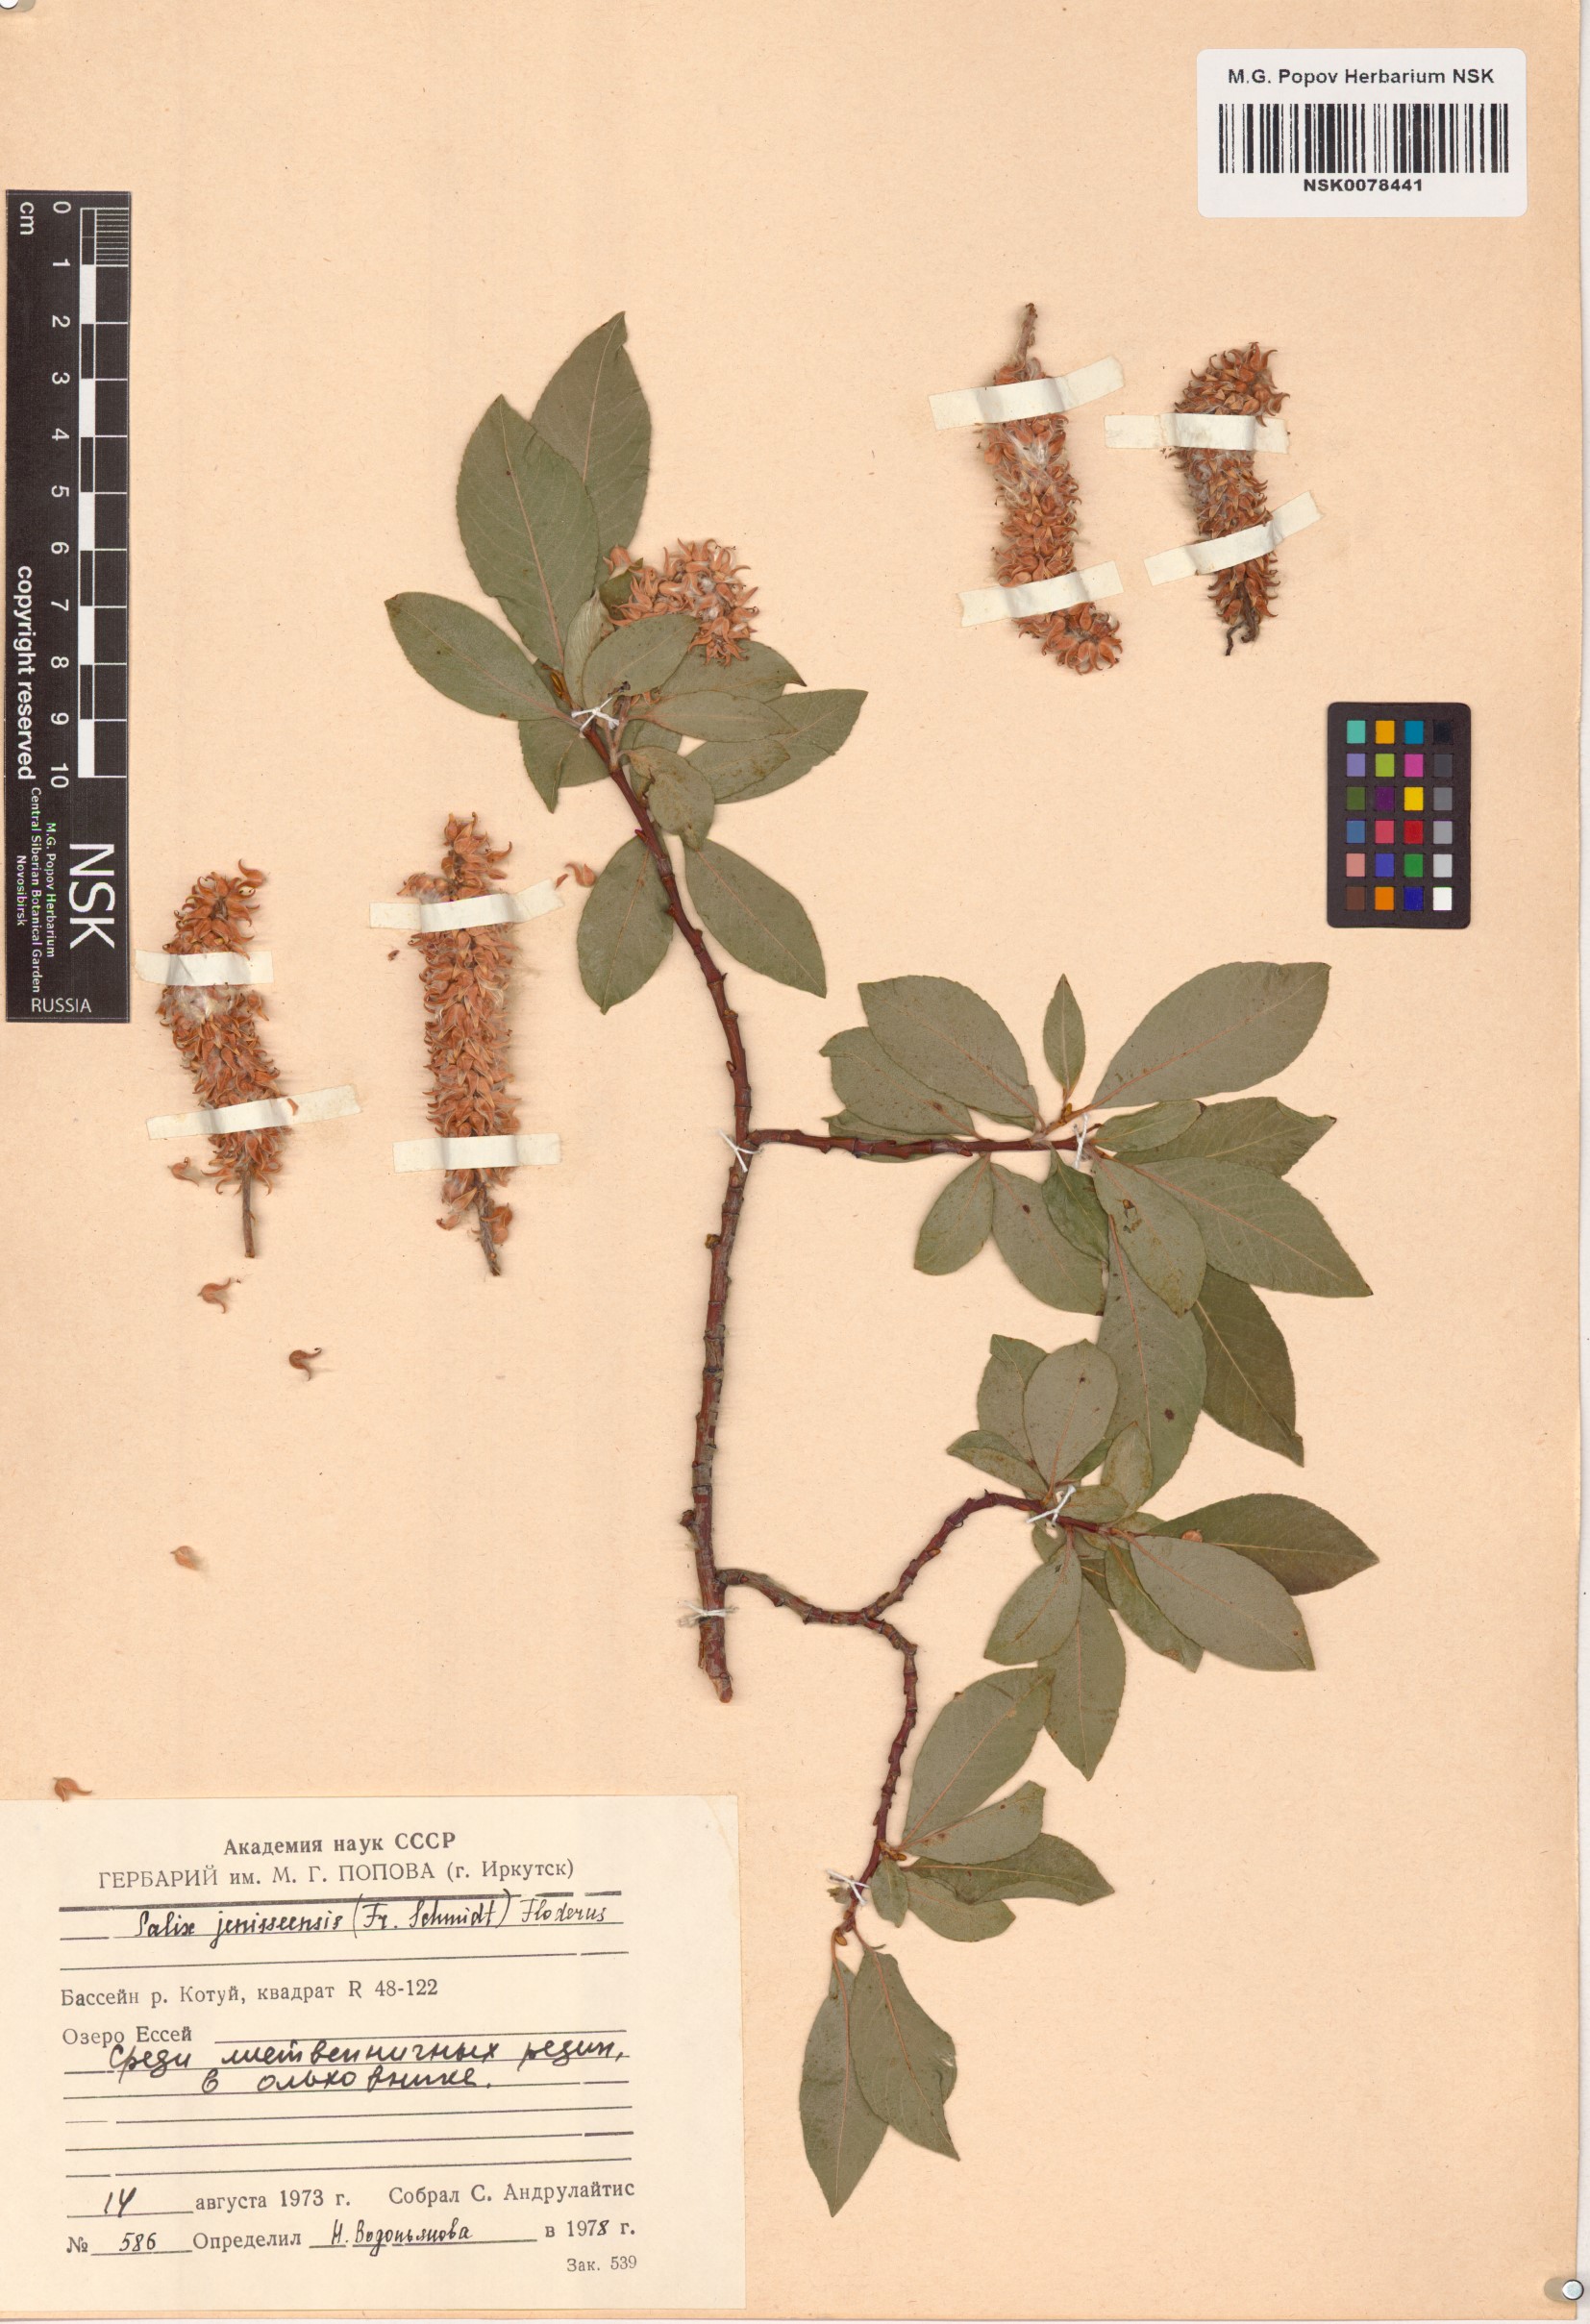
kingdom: Plantae
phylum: Tracheophyta
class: Magnoliopsida
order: Malpighiales
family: Salicaceae
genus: Salix
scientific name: Salix jenisseensis
